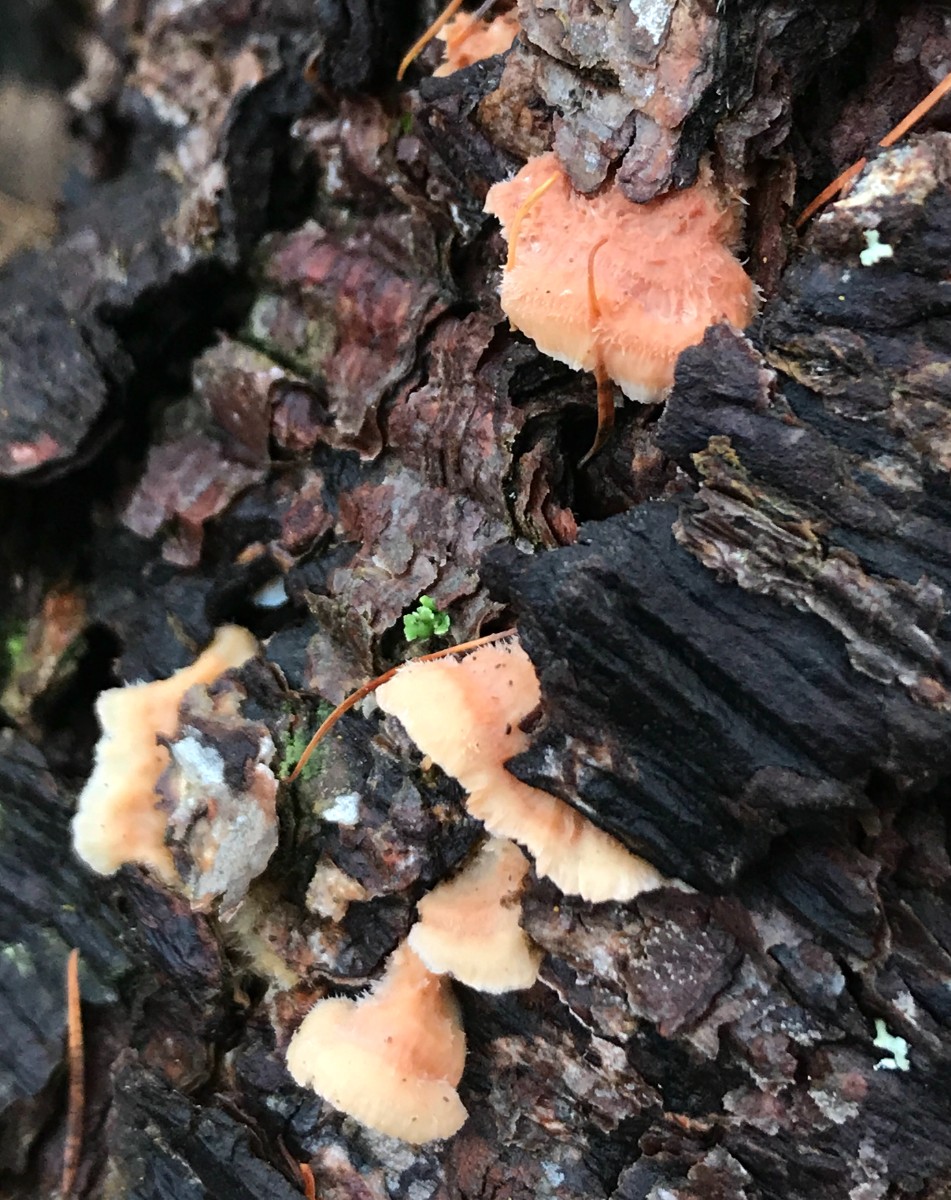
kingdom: Fungi
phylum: Basidiomycota
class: Agaricomycetes
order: Polyporales
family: Meruliaceae
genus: Phlebia
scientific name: Phlebia tremellosa
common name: bævrende åresvamp
